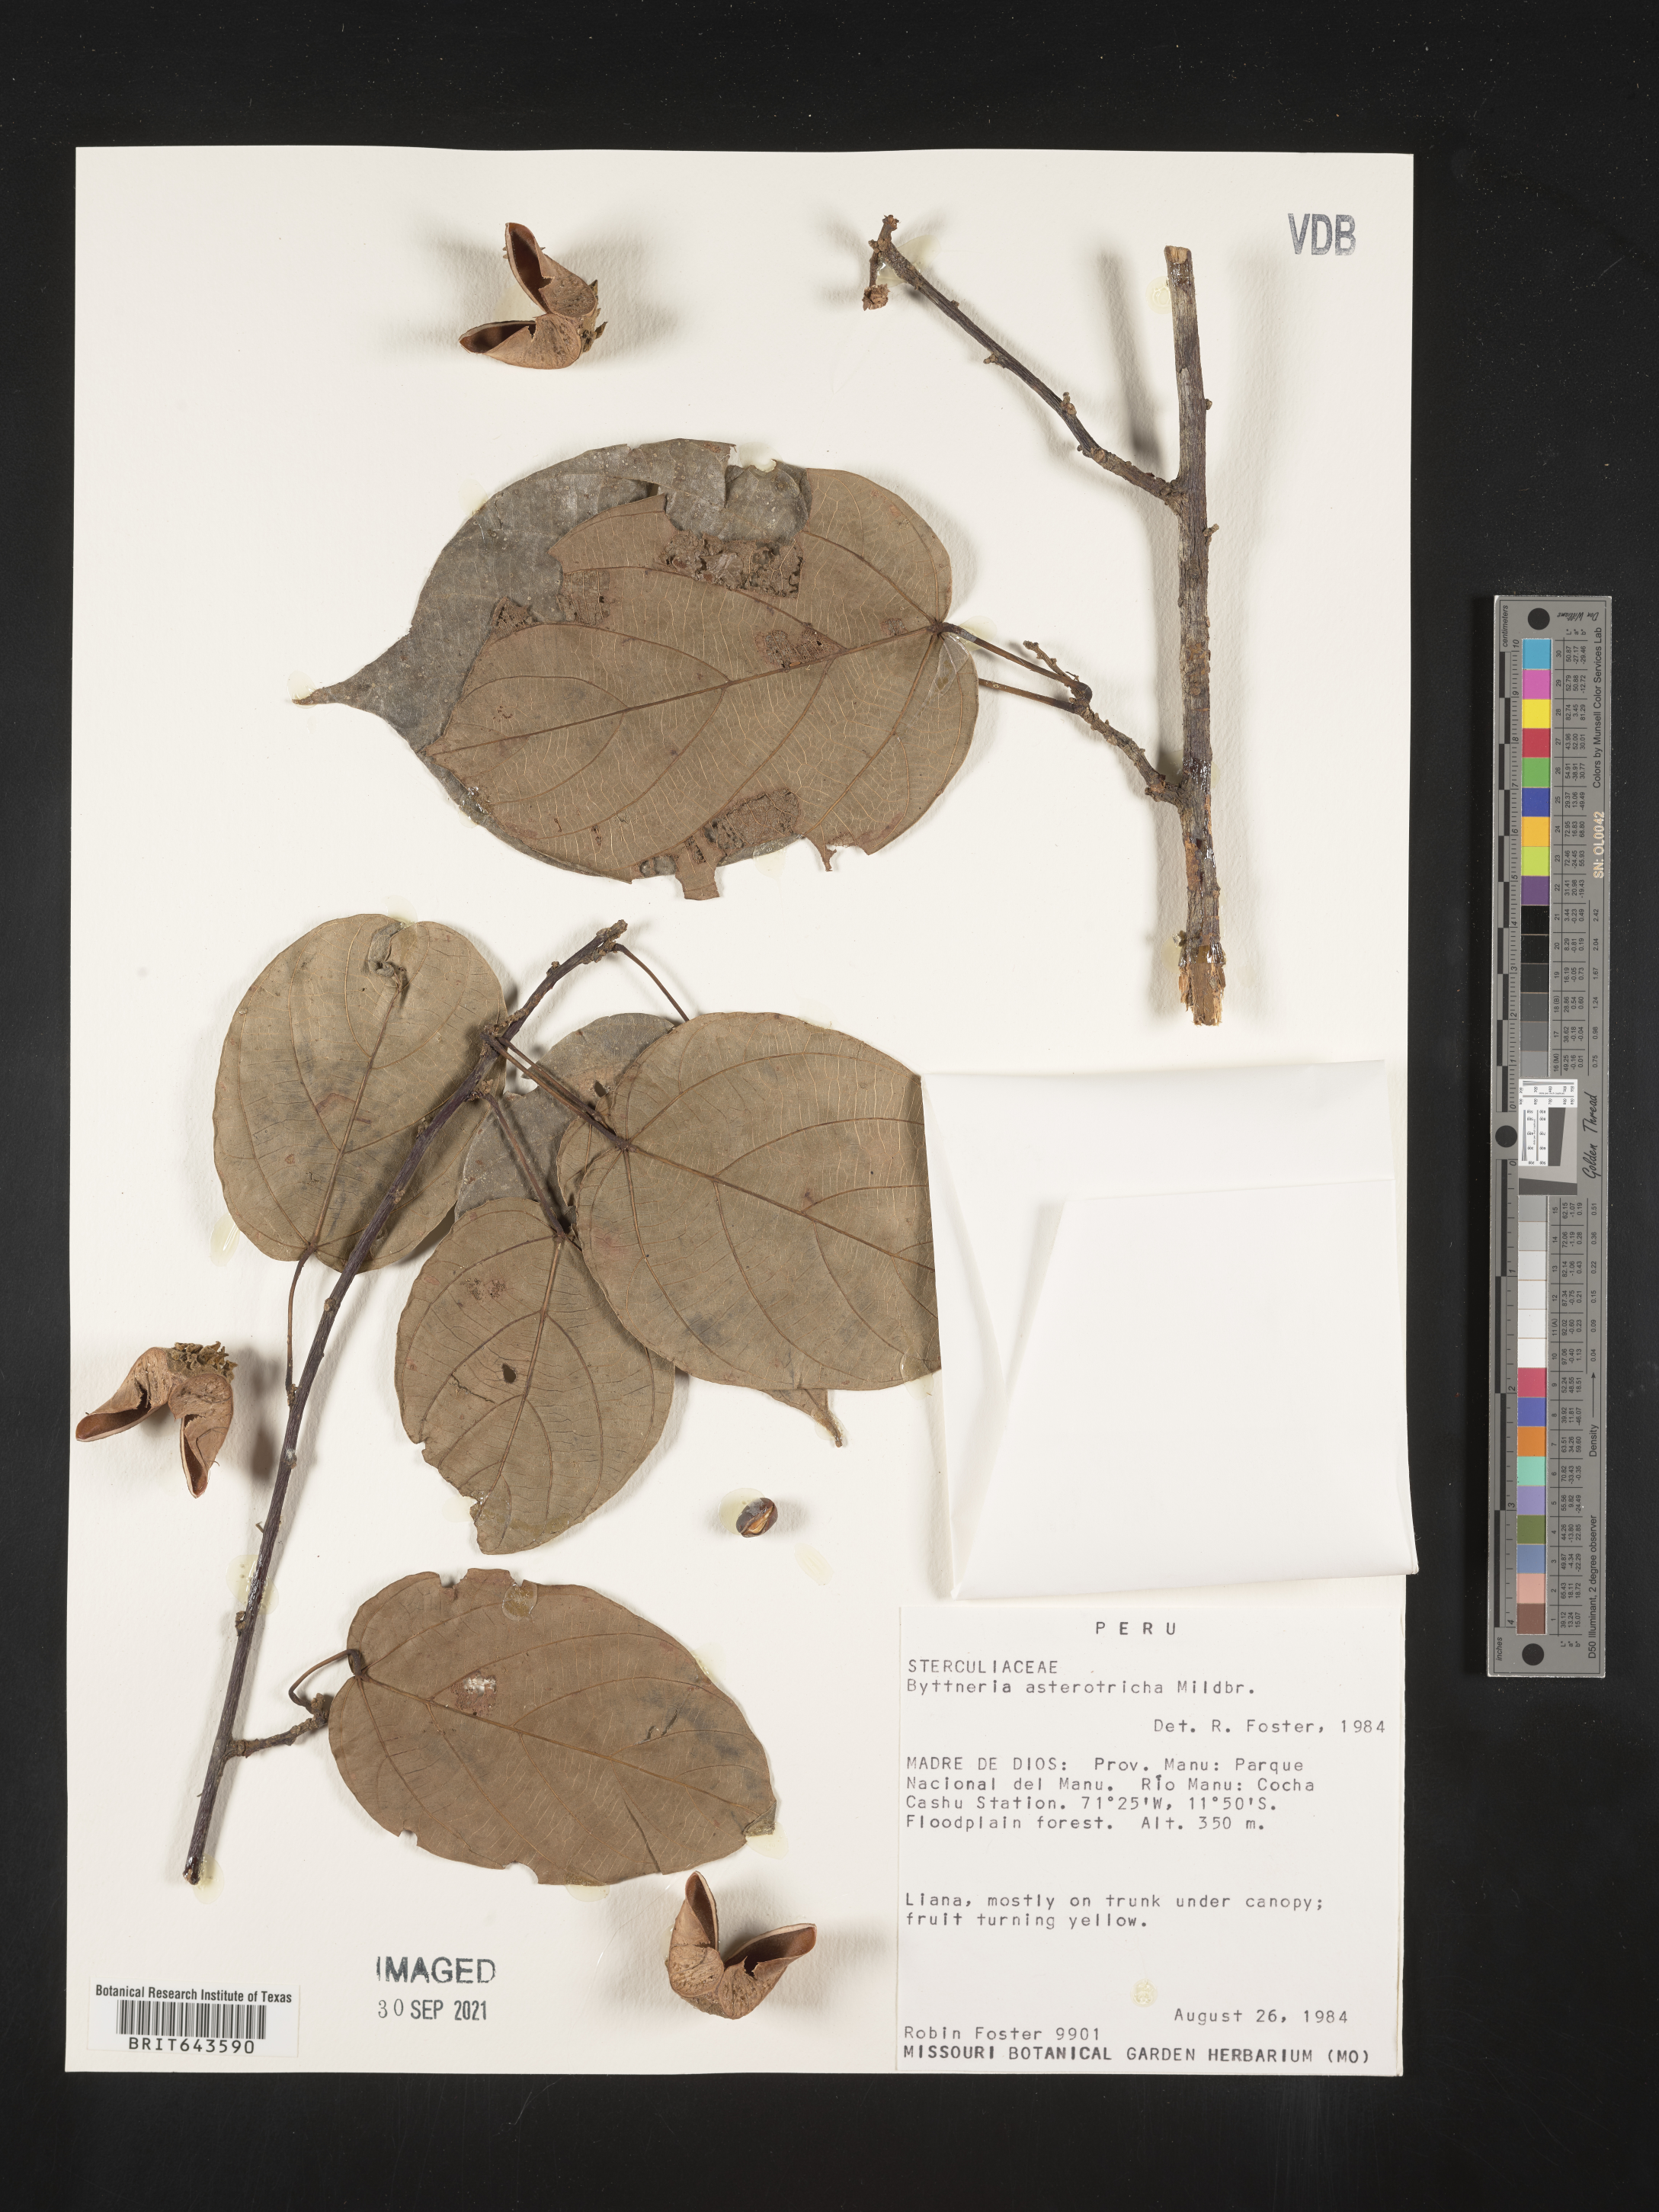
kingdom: Plantae
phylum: Tracheophyta
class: Magnoliopsida
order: Malvales
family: Malvaceae
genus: Byttneria
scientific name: Byttneria
